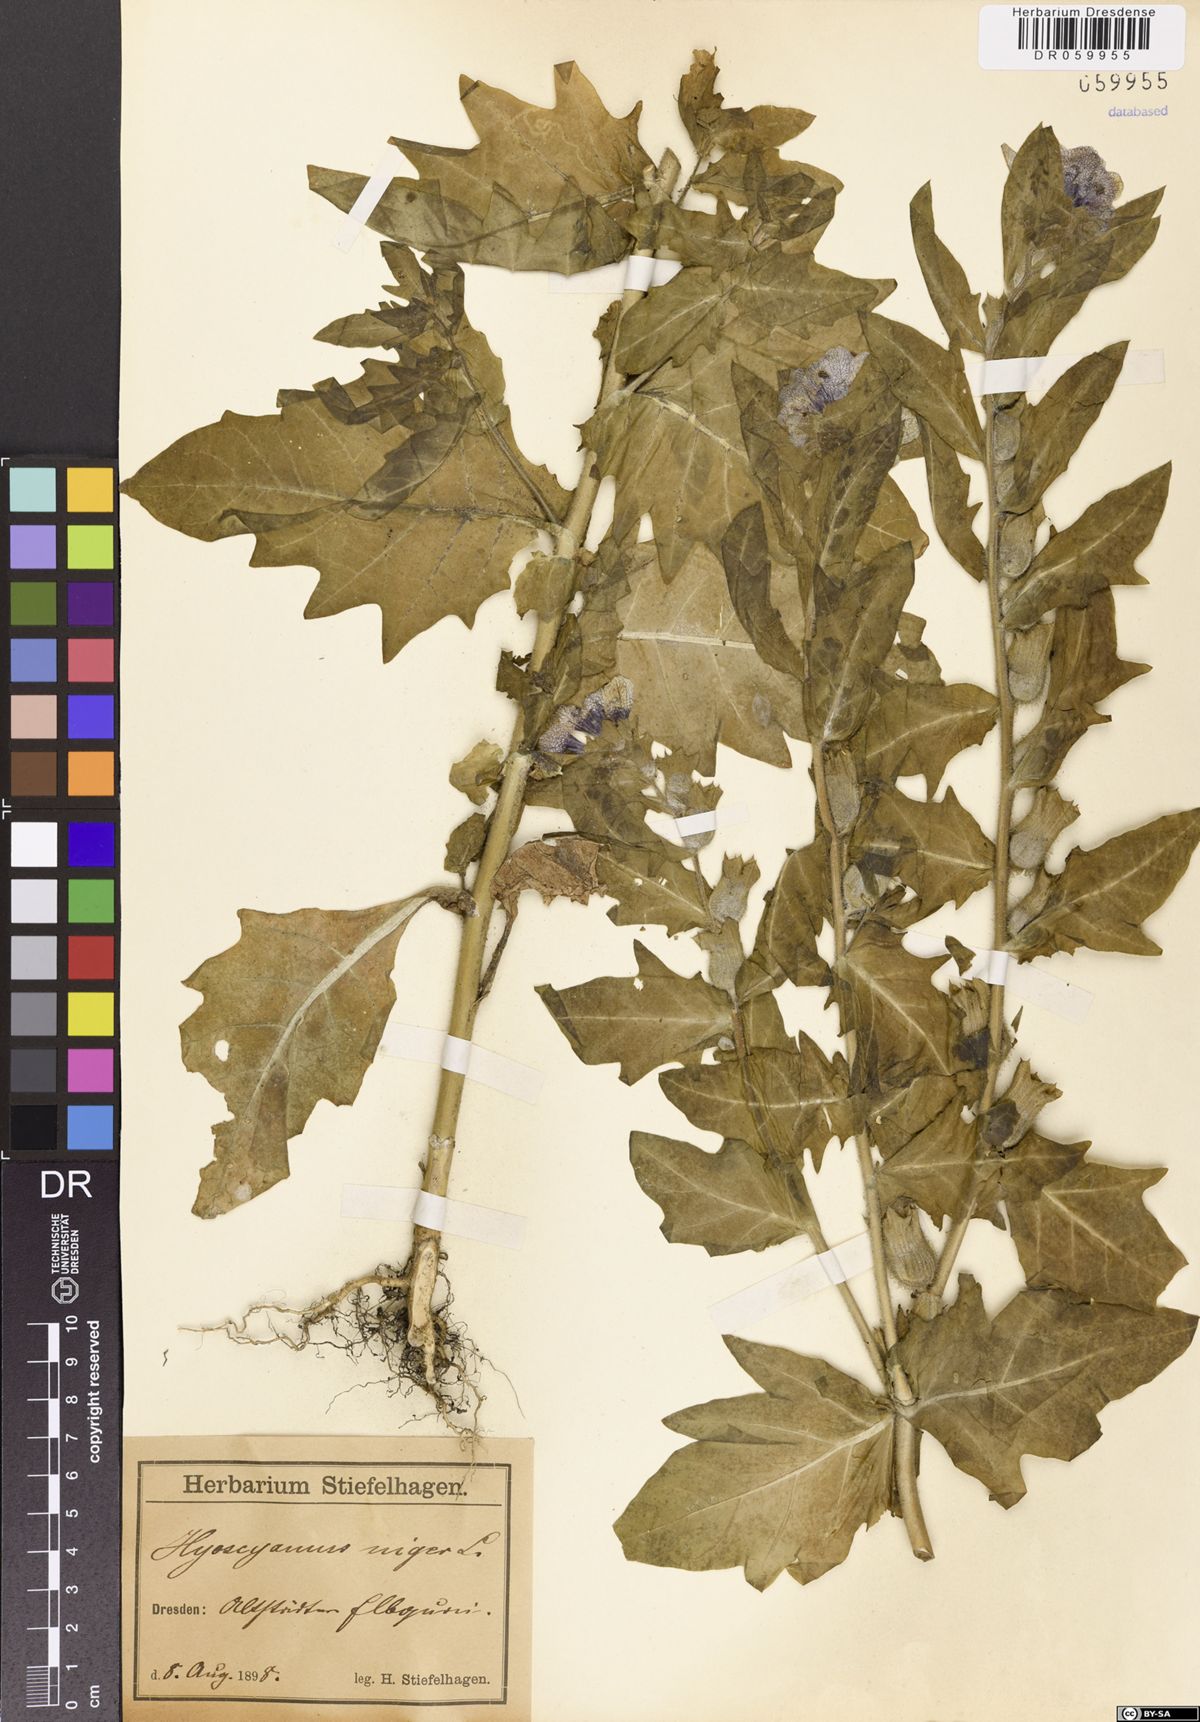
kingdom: Plantae
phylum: Tracheophyta
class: Magnoliopsida
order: Solanales
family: Solanaceae
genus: Hyoscyamus
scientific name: Hyoscyamus niger
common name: Henbane
